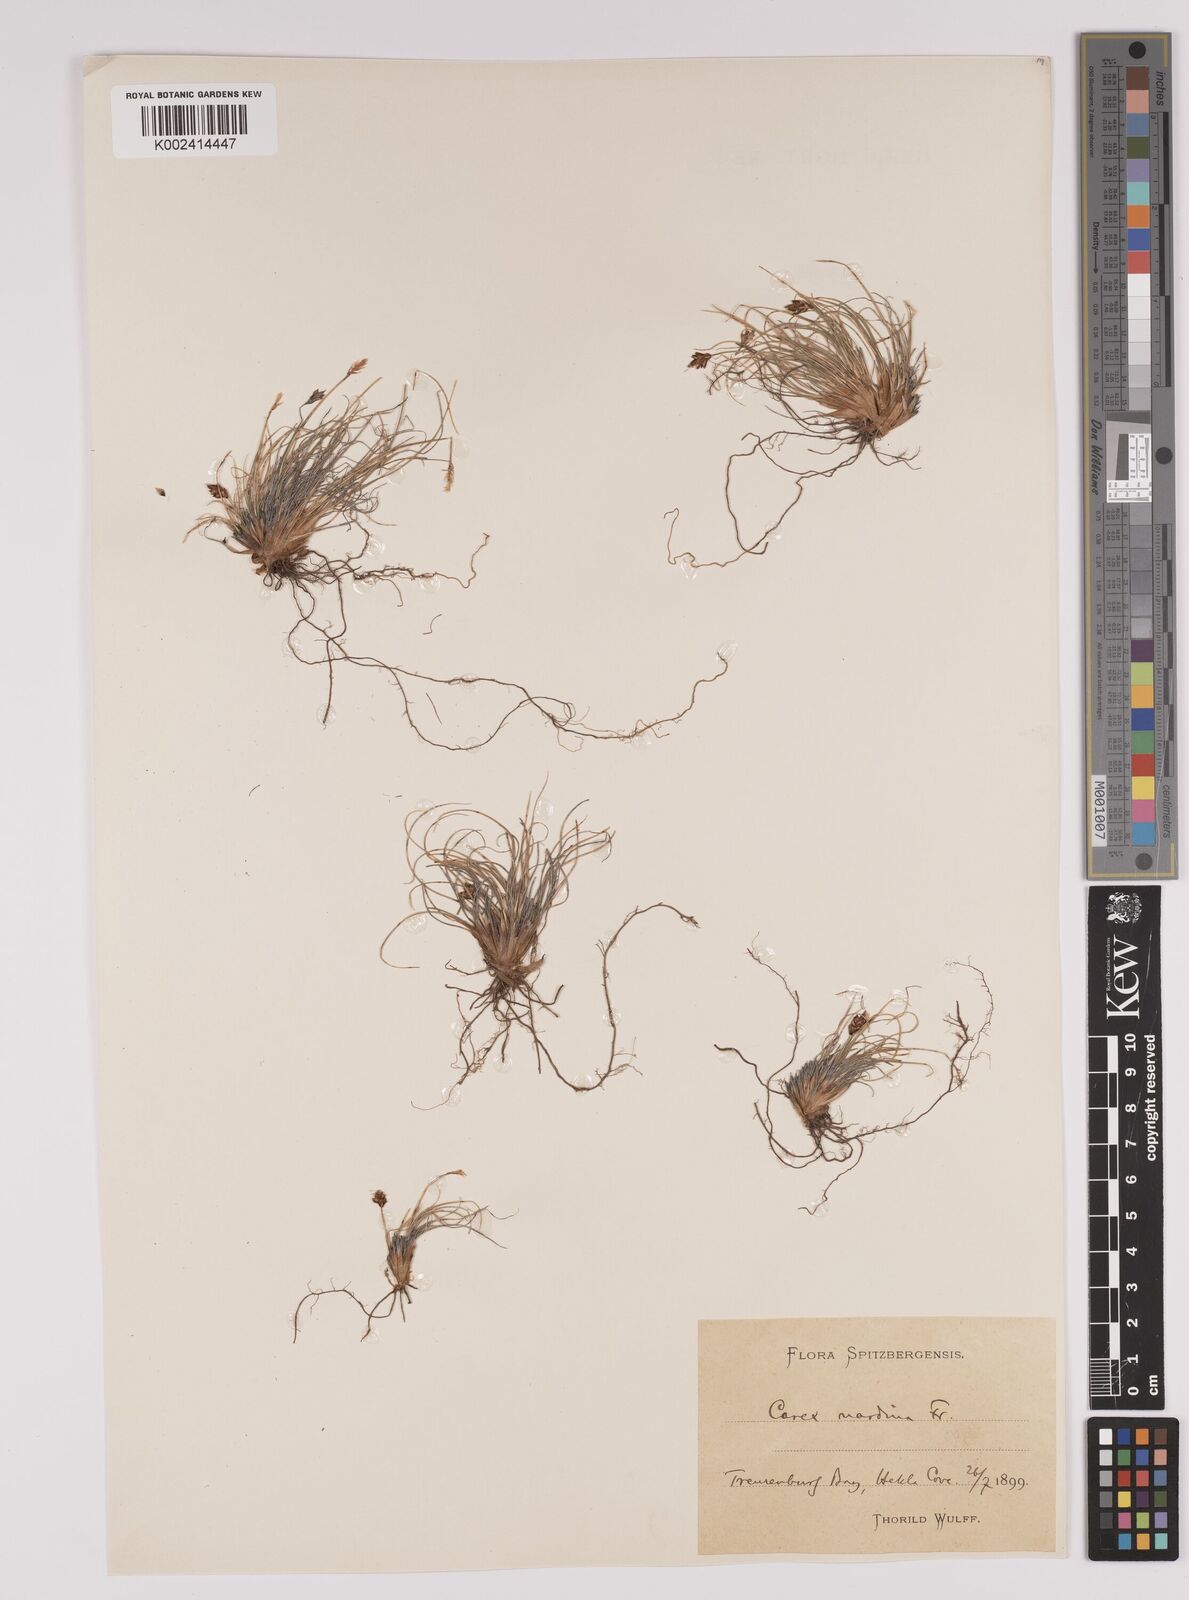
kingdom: Plantae
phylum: Tracheophyta
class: Liliopsida
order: Poales
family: Cyperaceae
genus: Carex
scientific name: Carex nardina
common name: Nard sedge
